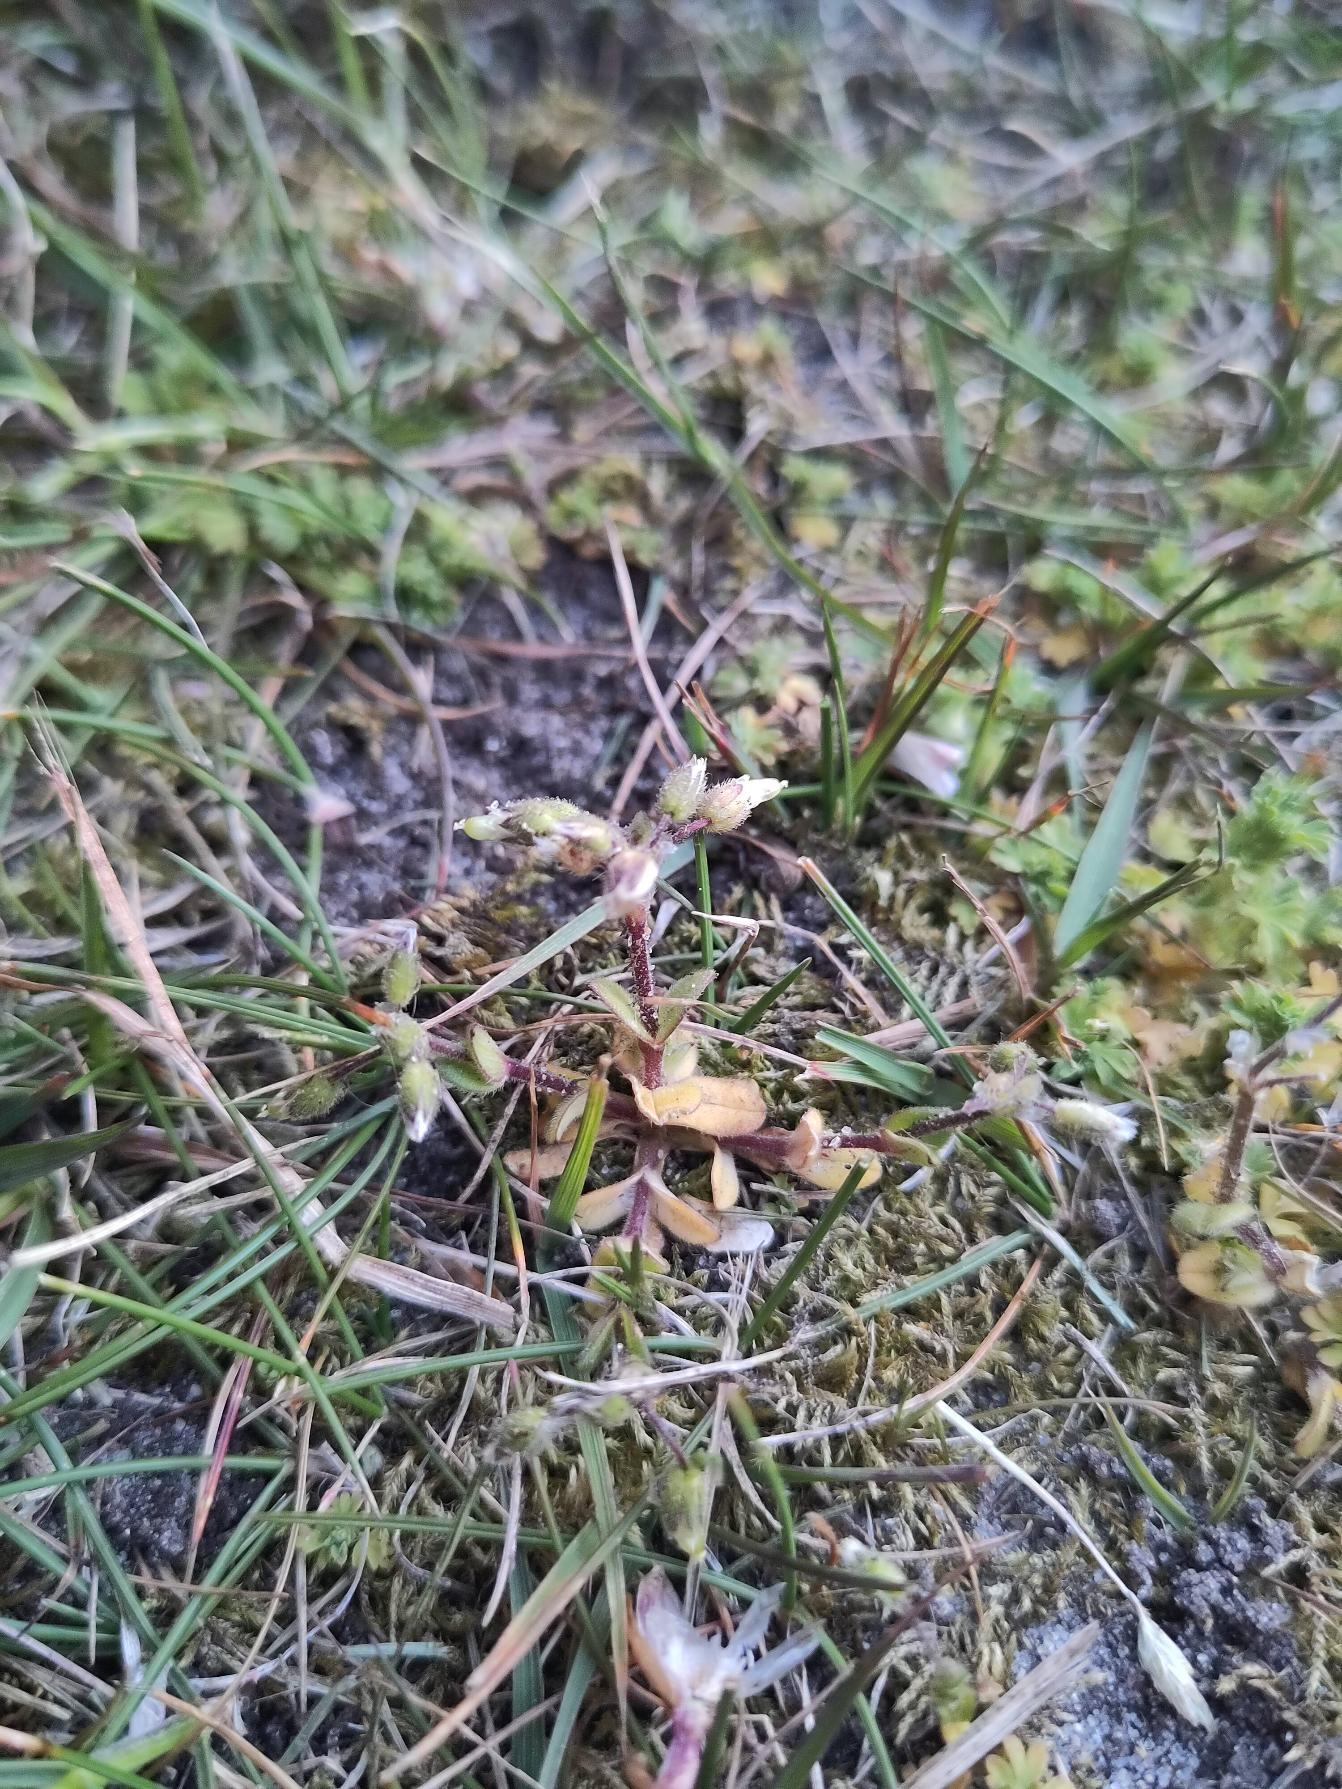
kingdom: Plantae
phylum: Tracheophyta
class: Magnoliopsida
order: Caryophyllales
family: Caryophyllaceae
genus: Cerastium
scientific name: Cerastium semidecandrum
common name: Femhannet hønsetarm
